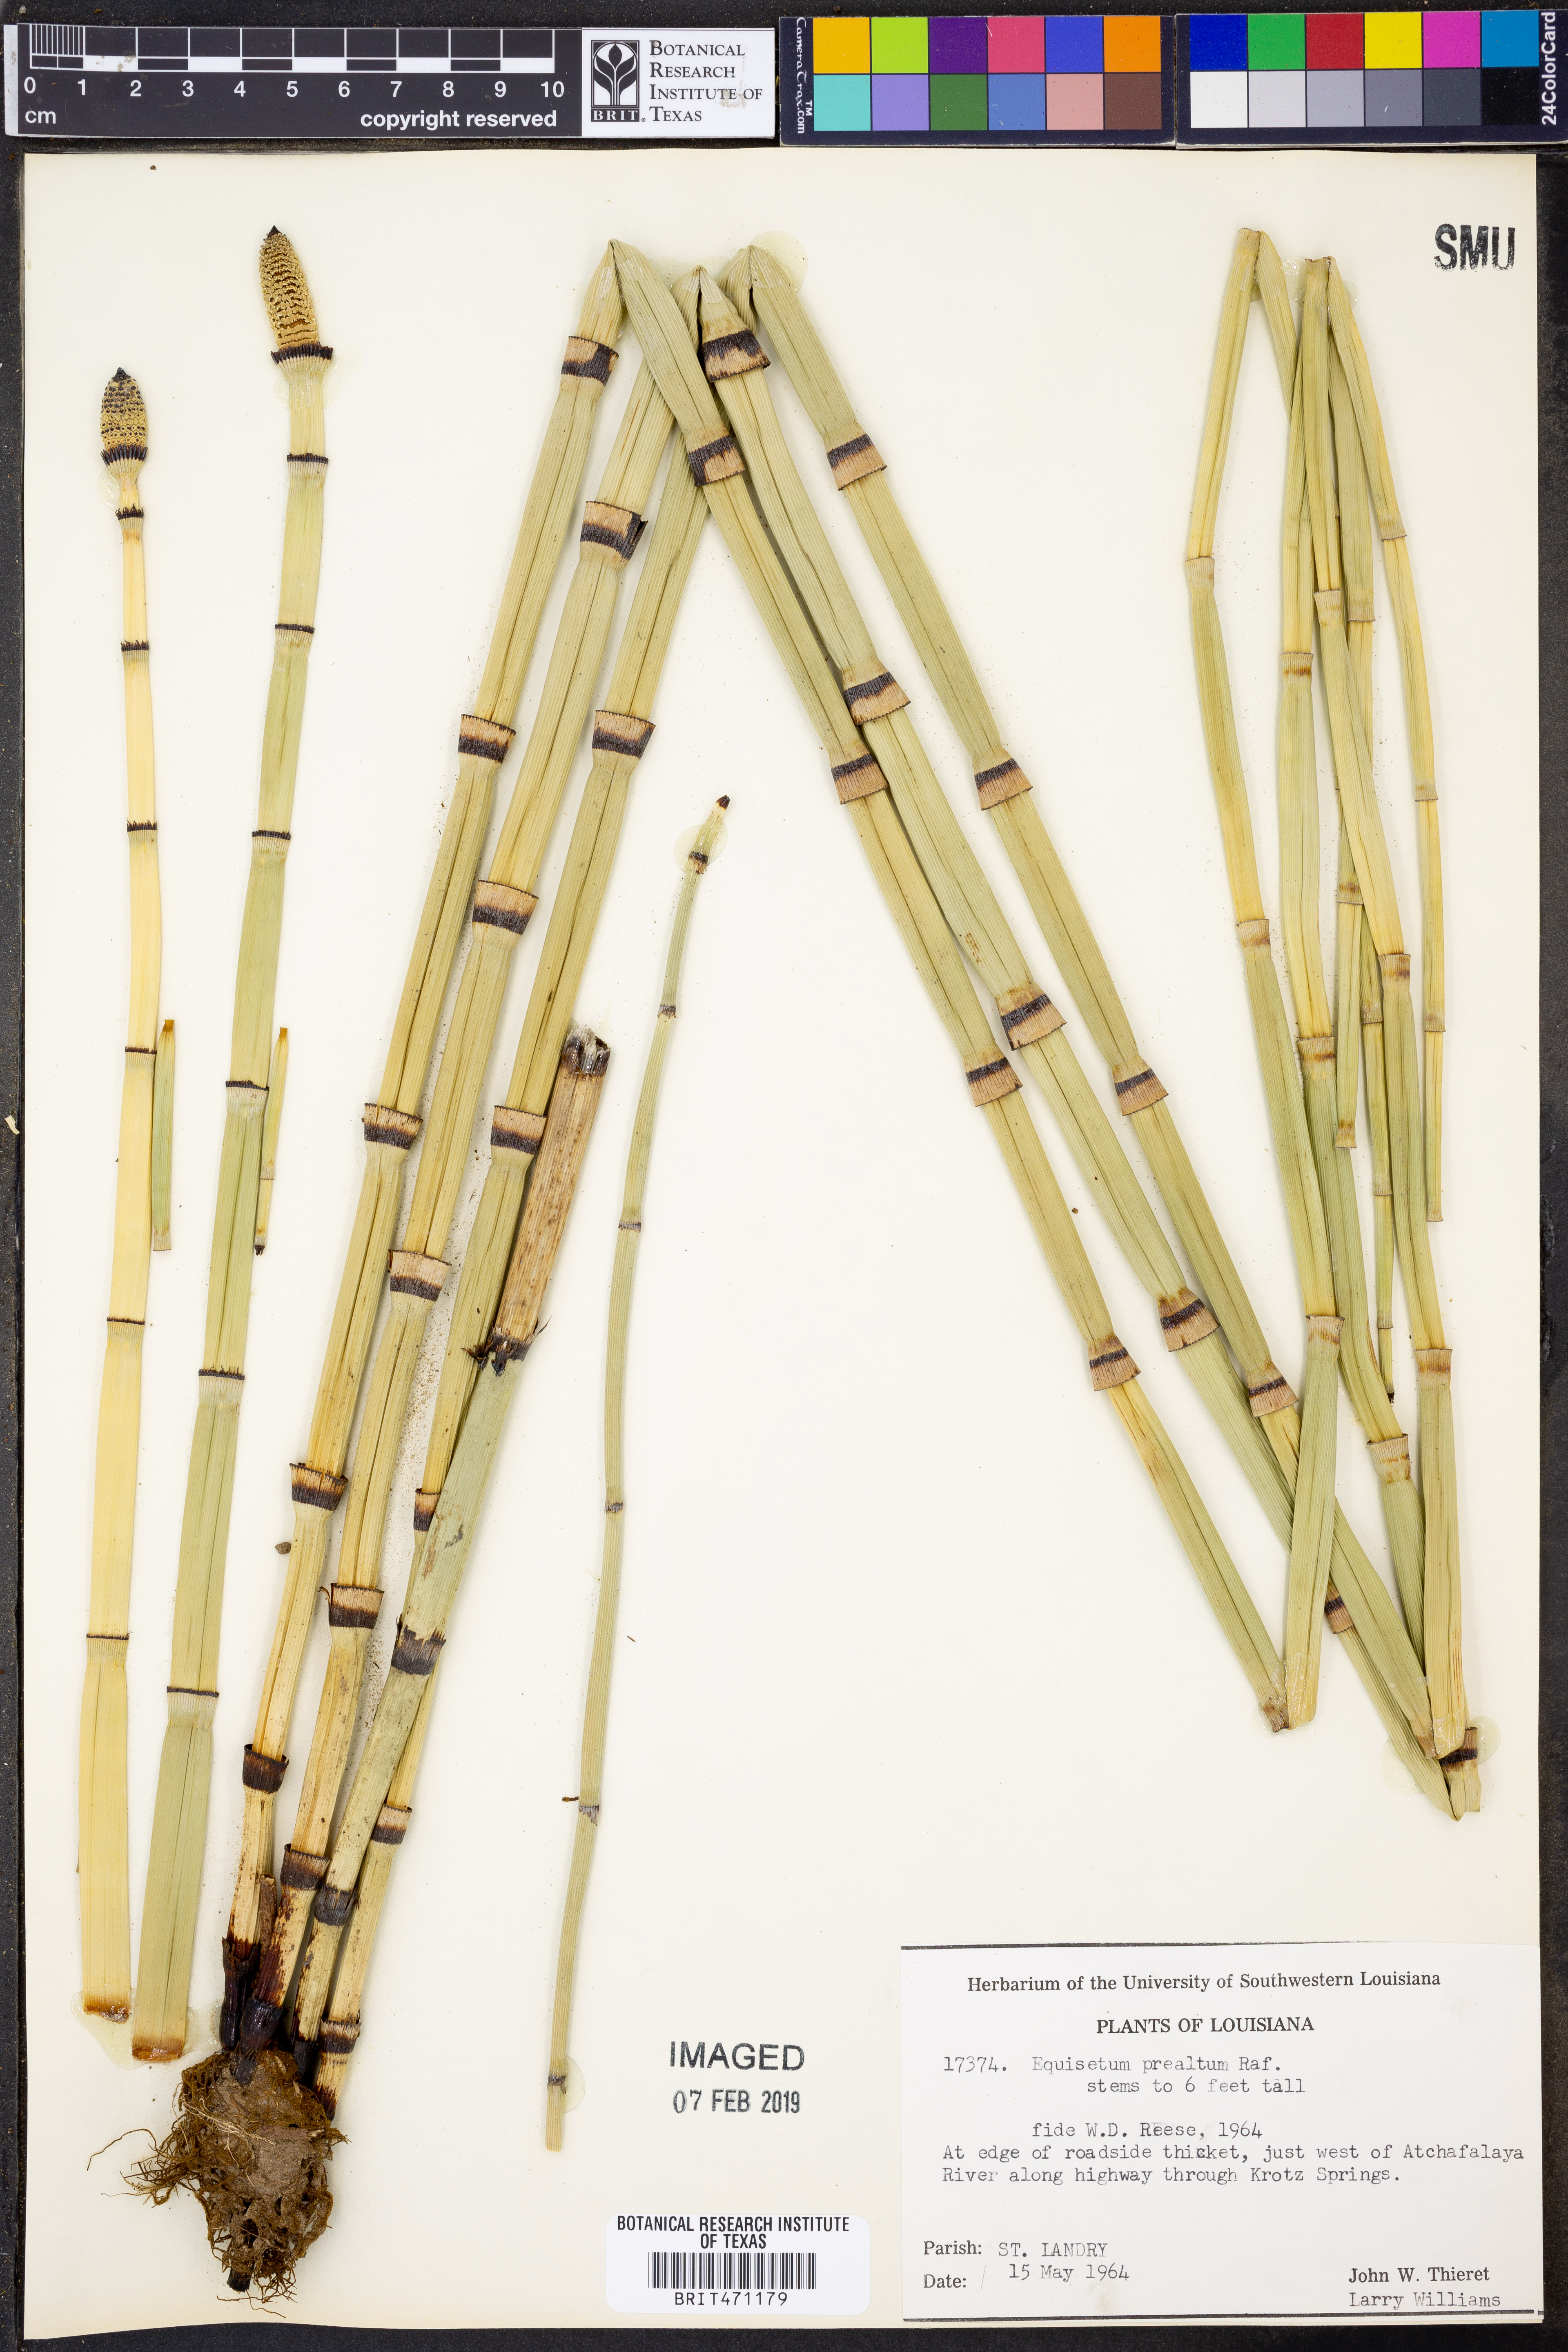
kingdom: Plantae
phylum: Tracheophyta
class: Polypodiopsida
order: Equisetales
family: Equisetaceae
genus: Equisetum
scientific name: Equisetum praealtum
